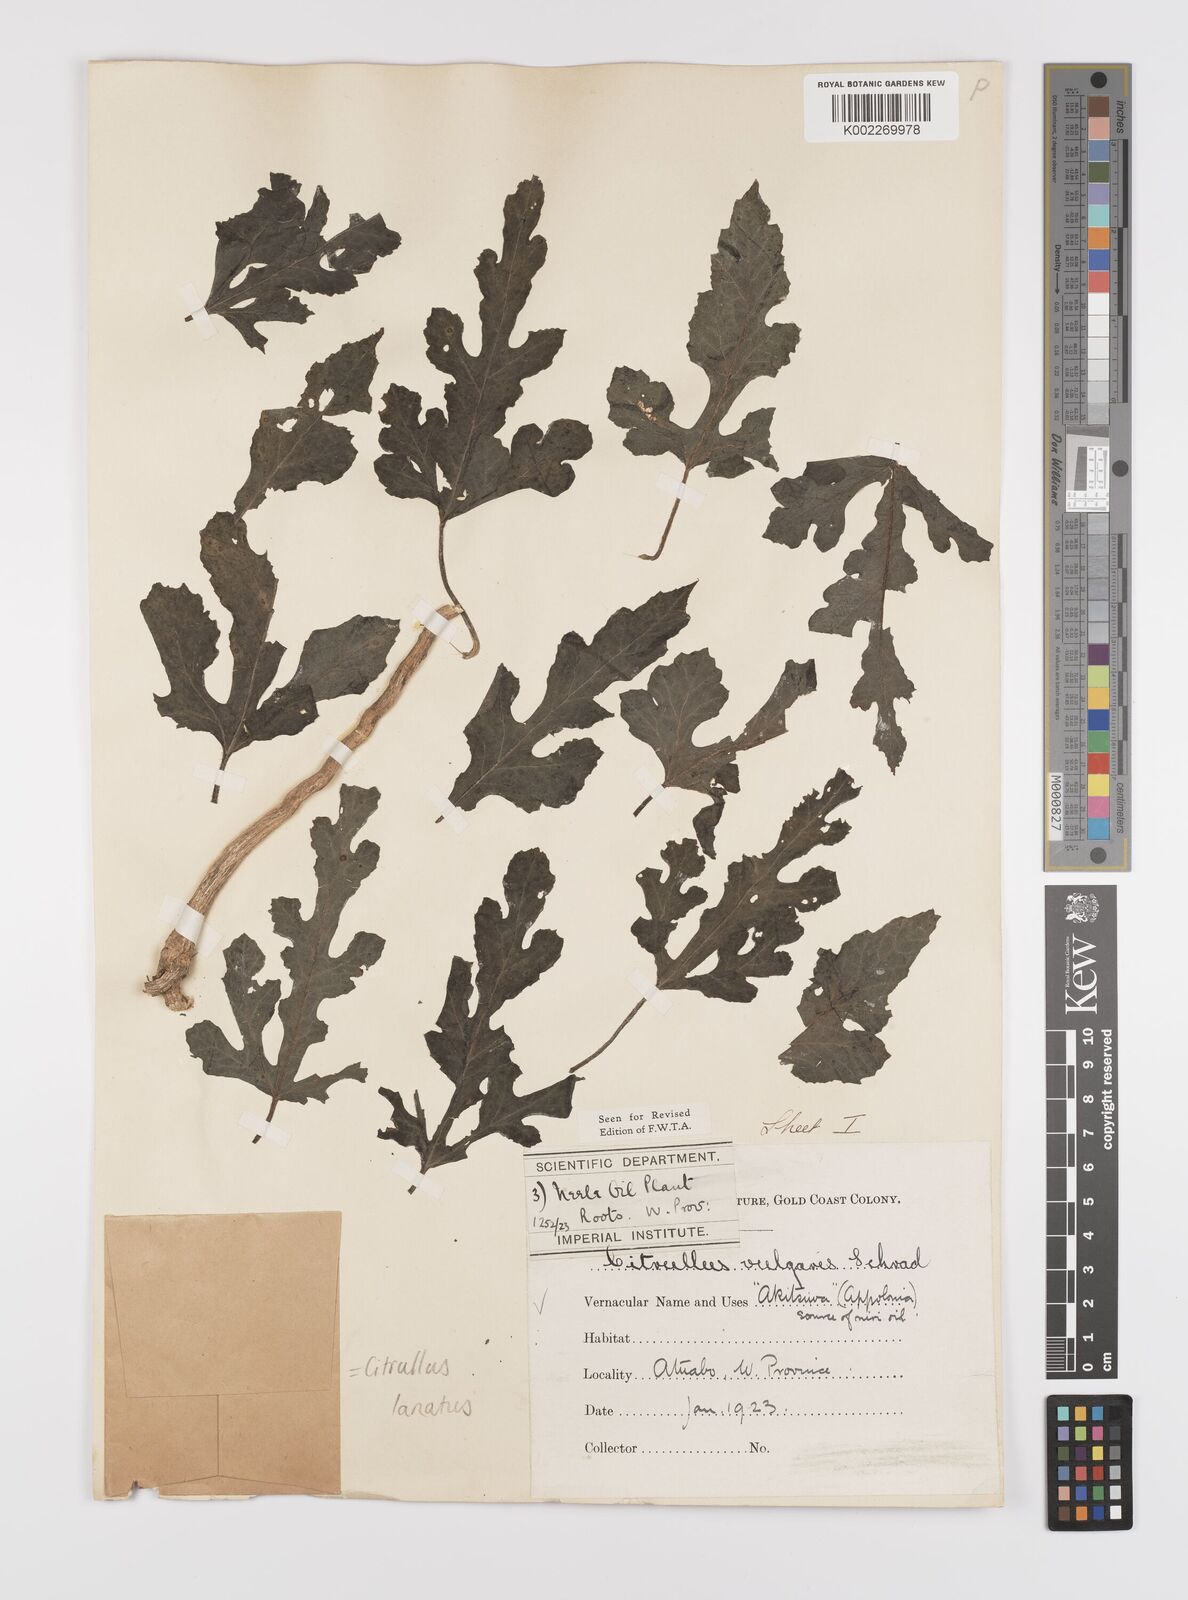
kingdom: Plantae
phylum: Tracheophyta
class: Magnoliopsida
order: Cucurbitales
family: Cucurbitaceae
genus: Citrullus
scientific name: Citrullus lanatus
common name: Watermelon
